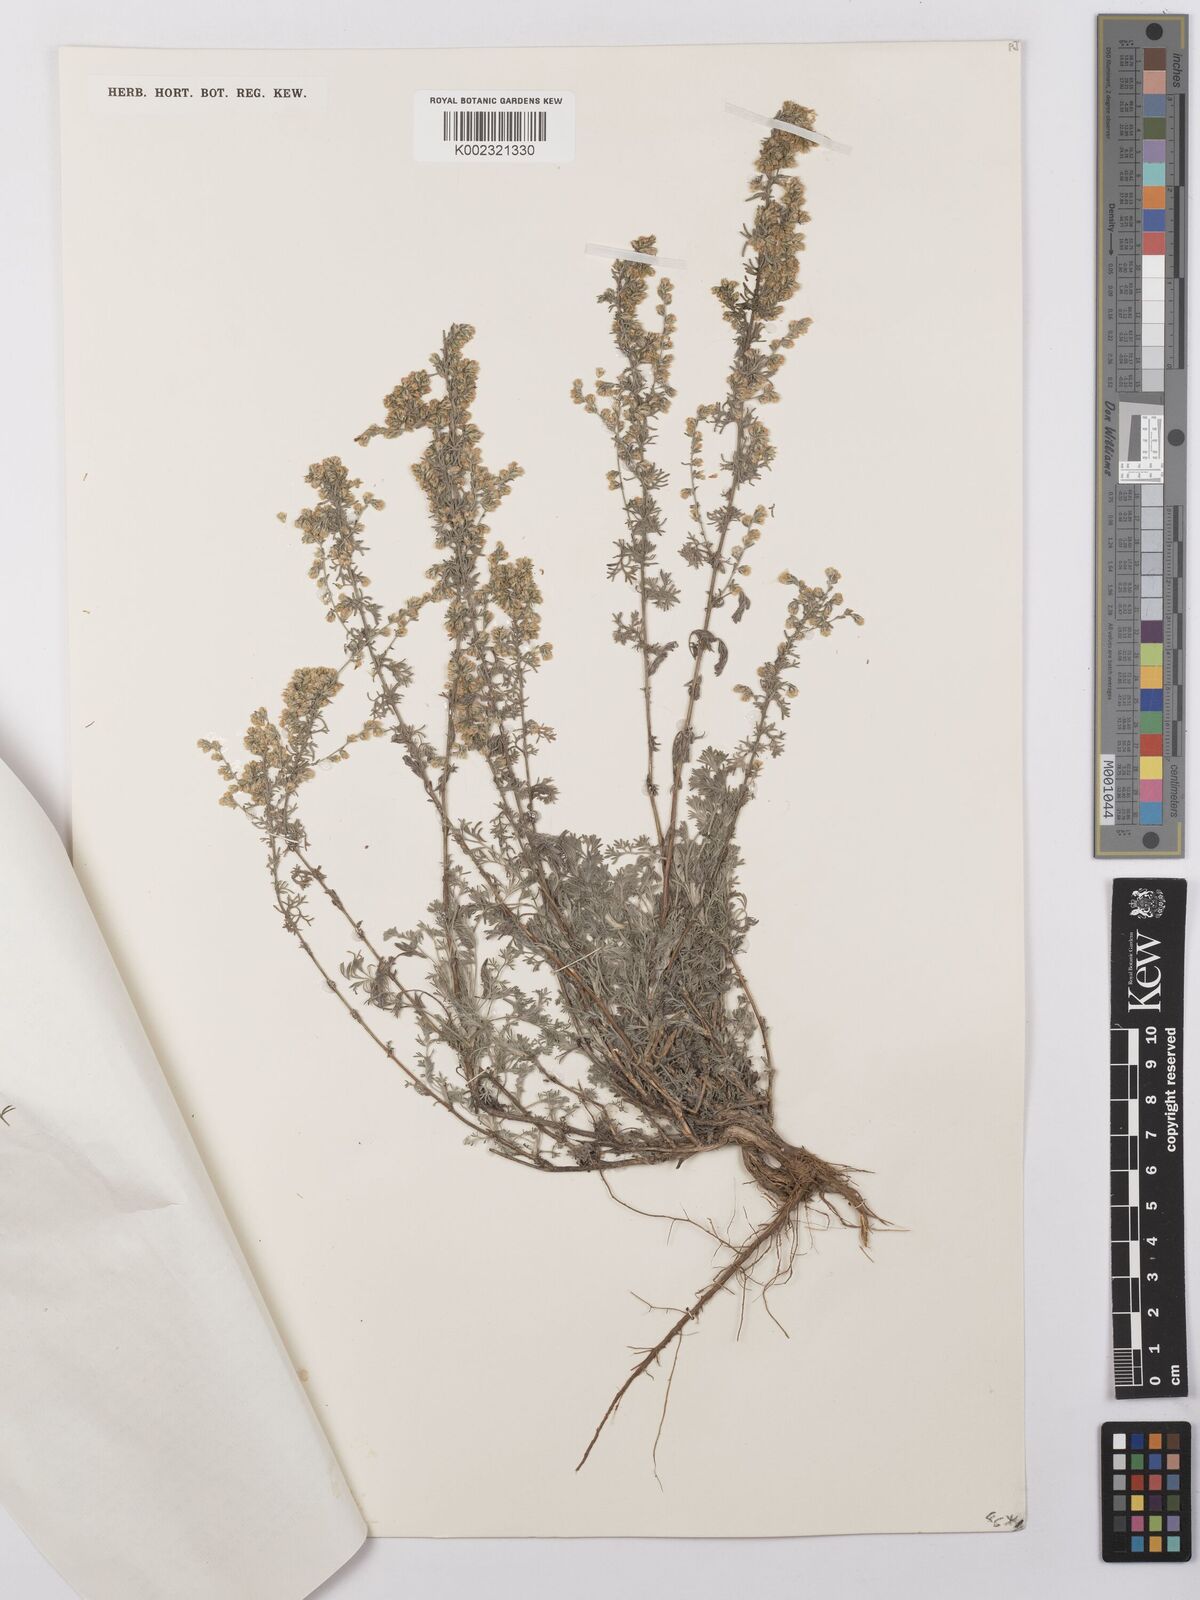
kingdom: Plantae
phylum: Tracheophyta
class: Magnoliopsida
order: Asterales
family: Asteraceae
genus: Artemisia
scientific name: Artemisia taurica
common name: Tauric wormwood
